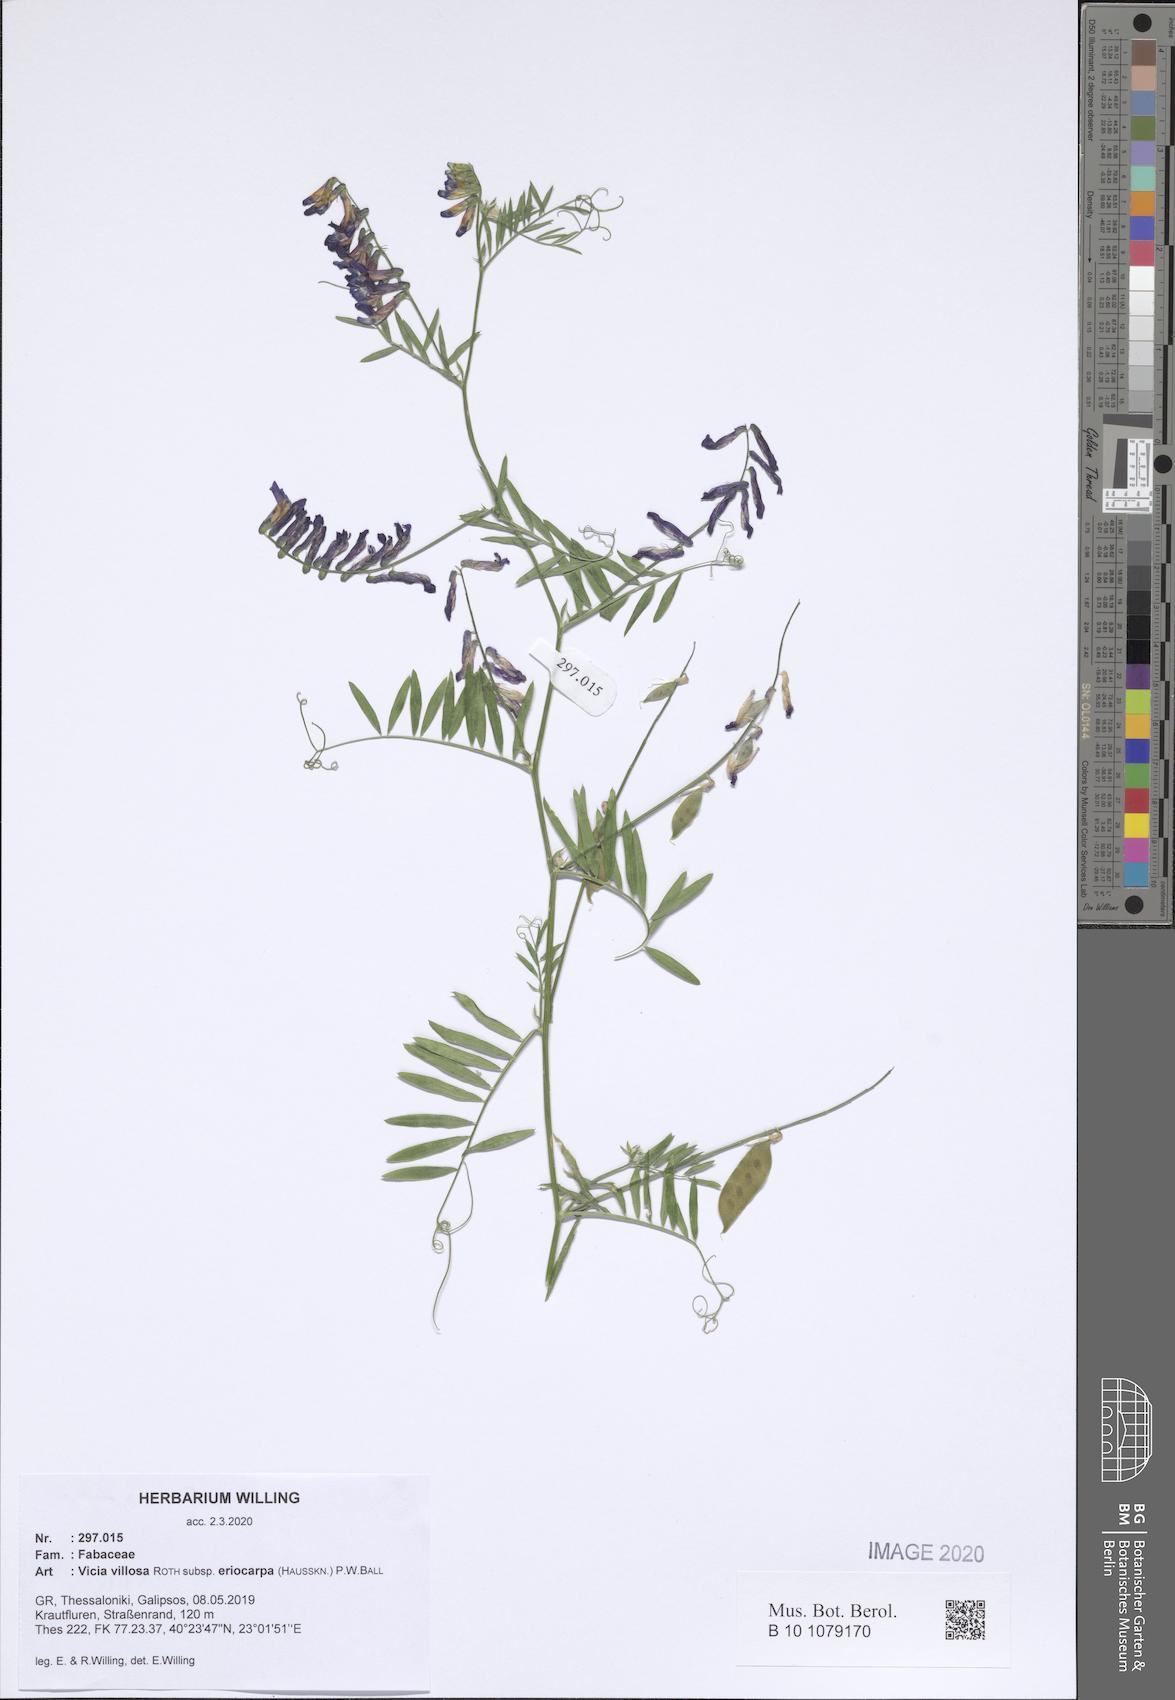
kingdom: Plantae
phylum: Tracheophyta
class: Magnoliopsida
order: Fabales
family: Fabaceae
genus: Vicia
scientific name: Vicia eriocarpa
